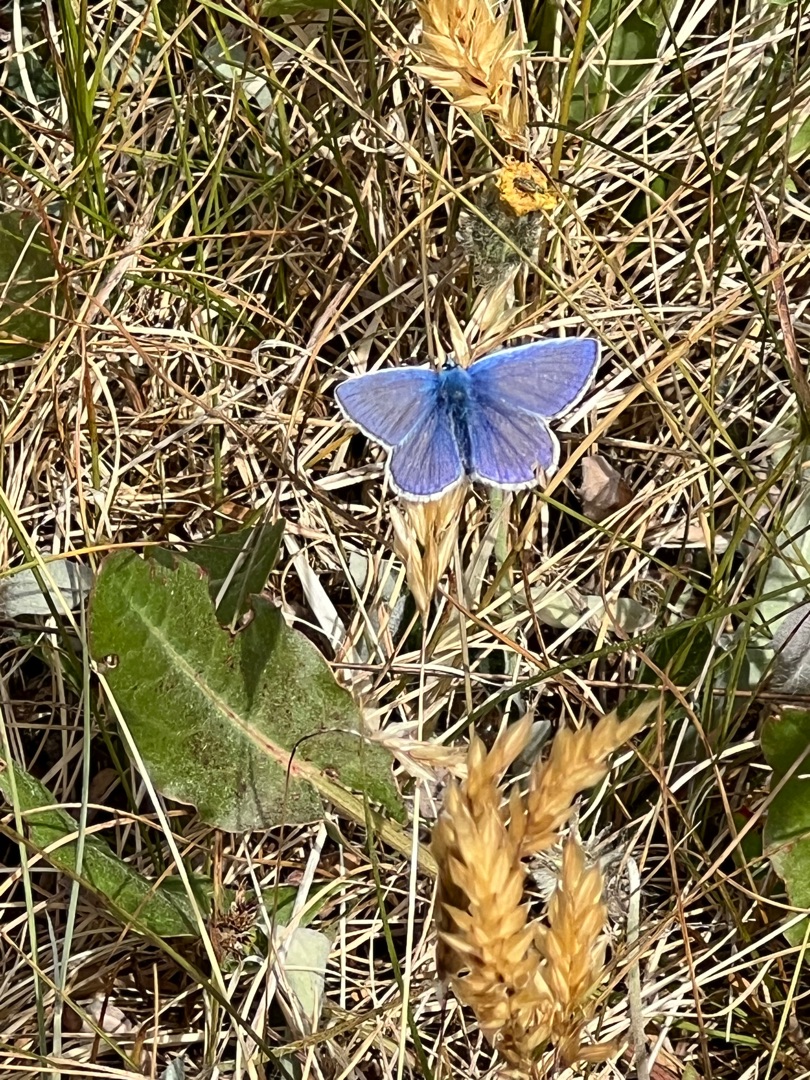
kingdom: Animalia
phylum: Arthropoda
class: Insecta
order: Lepidoptera
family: Lycaenidae
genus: Polyommatus
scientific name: Polyommatus icarus
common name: Almindelig blåfugl
